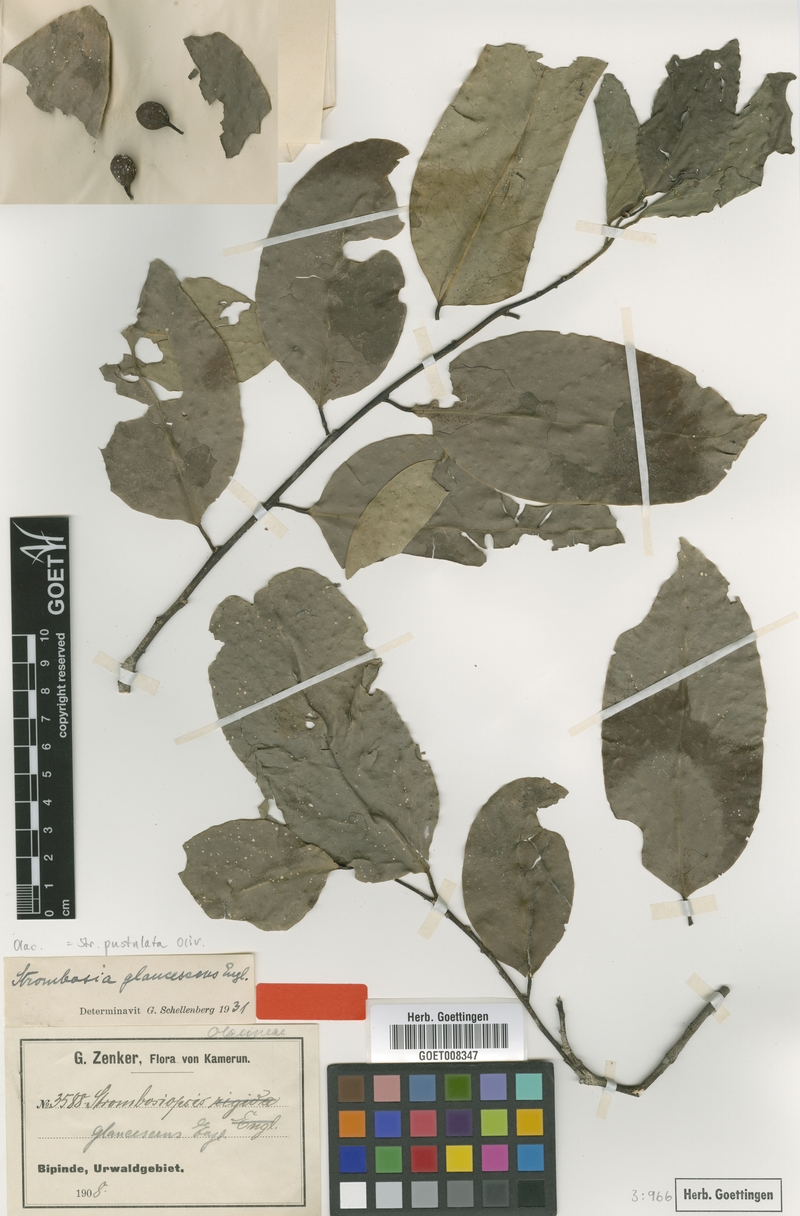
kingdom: Plantae
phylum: Tracheophyta
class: Magnoliopsida
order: Santalales
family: Strombosiaceae
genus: Strombosia
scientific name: Strombosia pustulata
